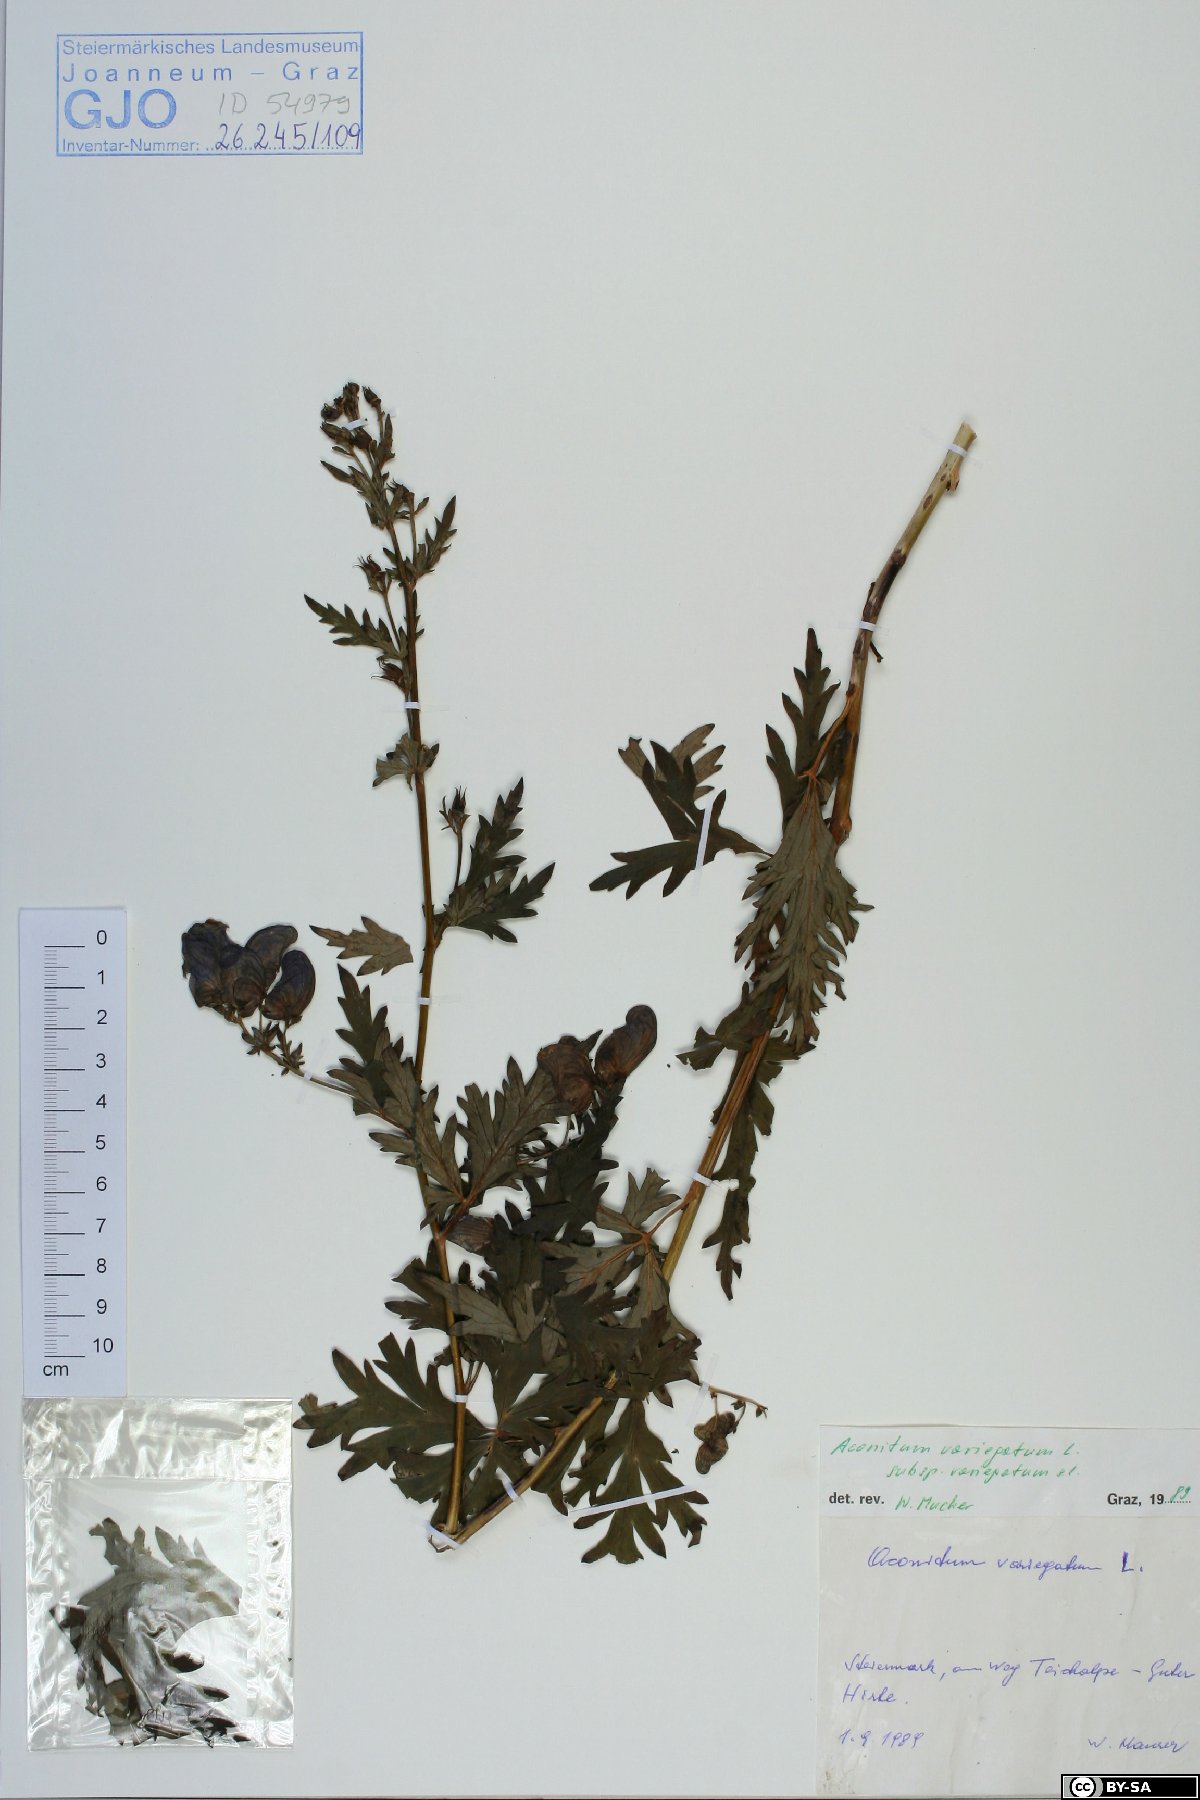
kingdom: Plantae
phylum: Tracheophyta
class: Magnoliopsida
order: Ranunculales
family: Ranunculaceae
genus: Aconitum
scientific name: Aconitum variegatum
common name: Manchurian monkshood
